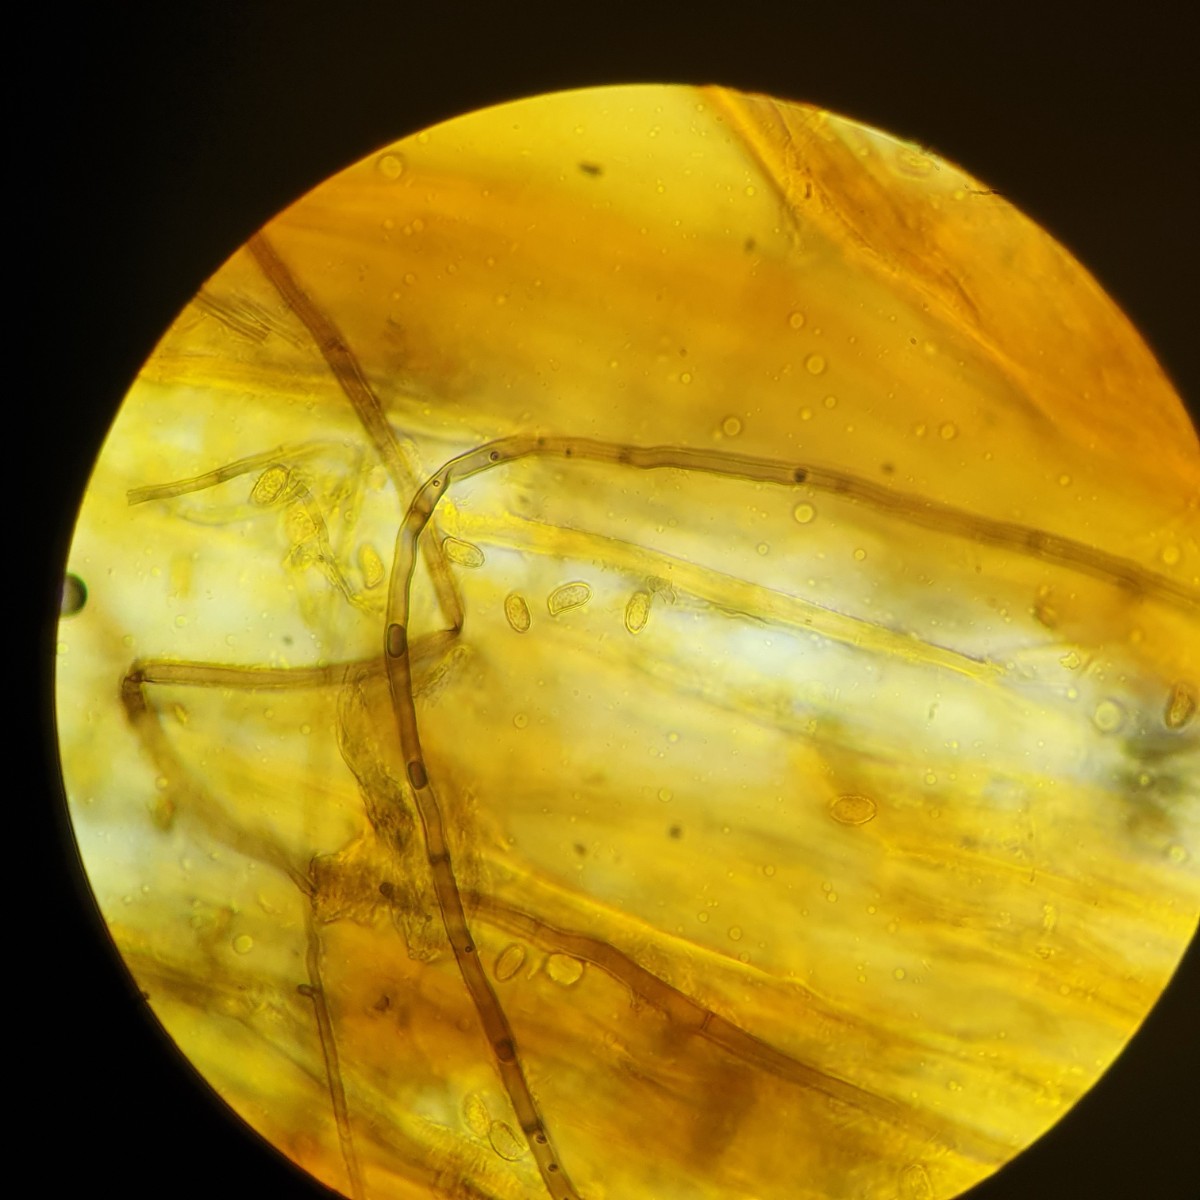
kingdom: Fungi
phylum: Basidiomycota
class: Agaricomycetes
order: Gomphales
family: Gomphaceae
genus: Ramaria
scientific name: Ramaria stricta
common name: rank koralsvamp
